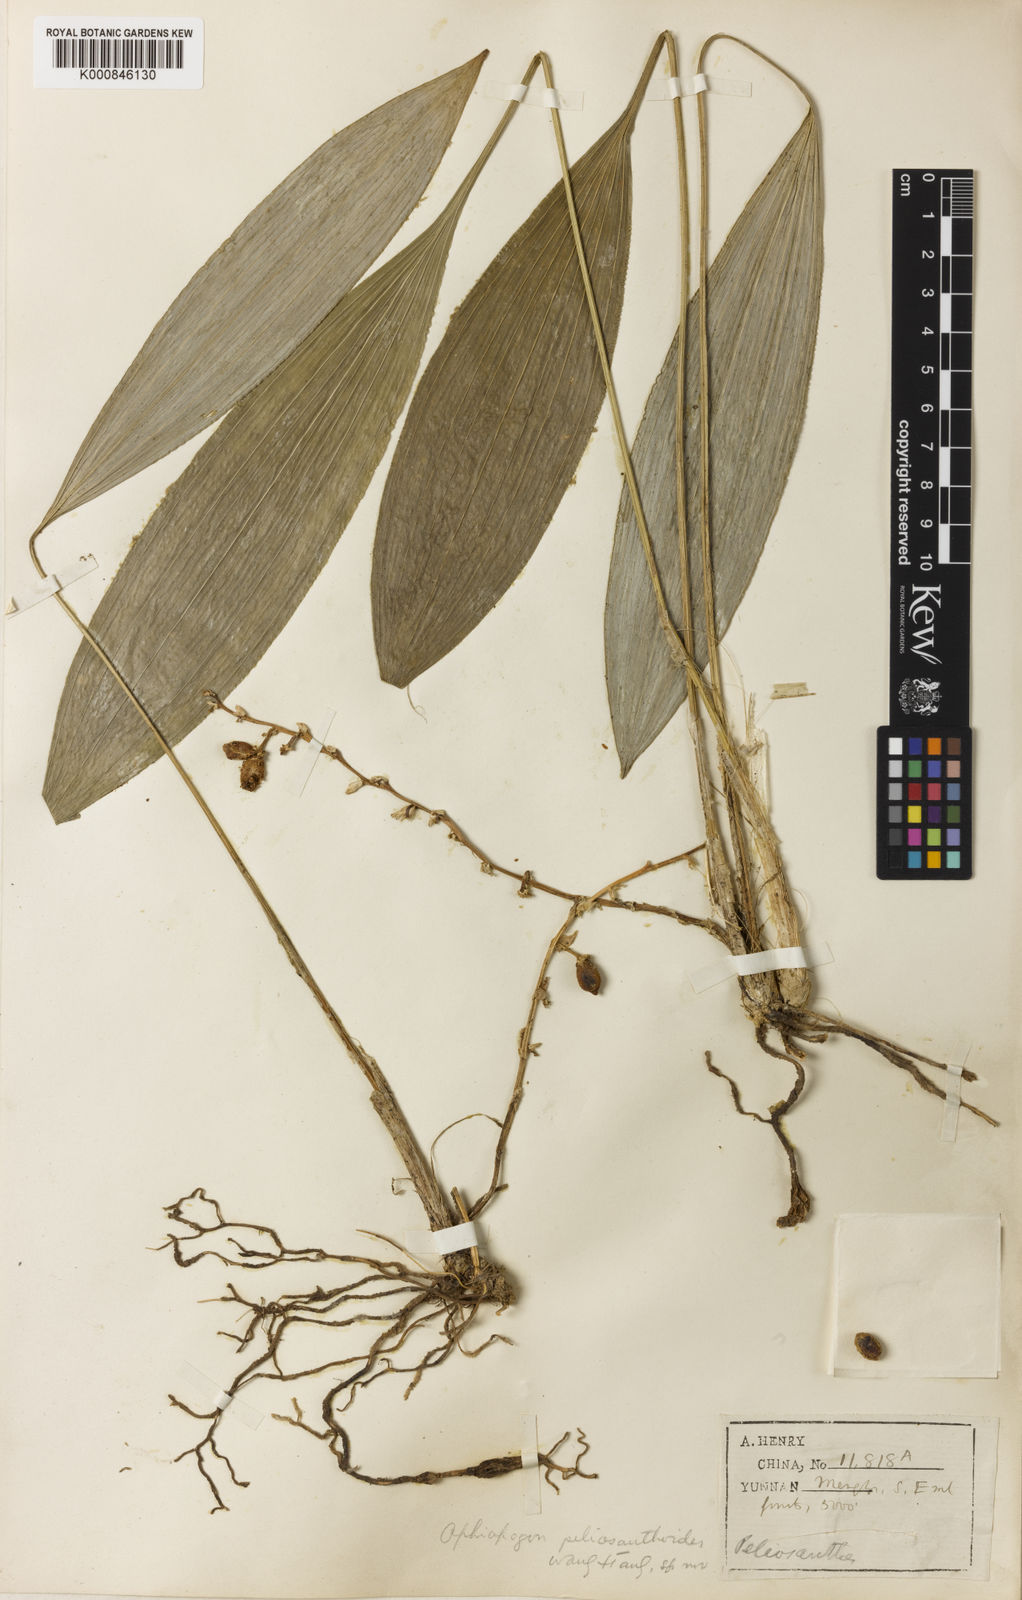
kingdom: Plantae
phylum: Tracheophyta
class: Liliopsida
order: Asparagales
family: Asparagaceae
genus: Ophiopogon
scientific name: Ophiopogon peliosanthoides
